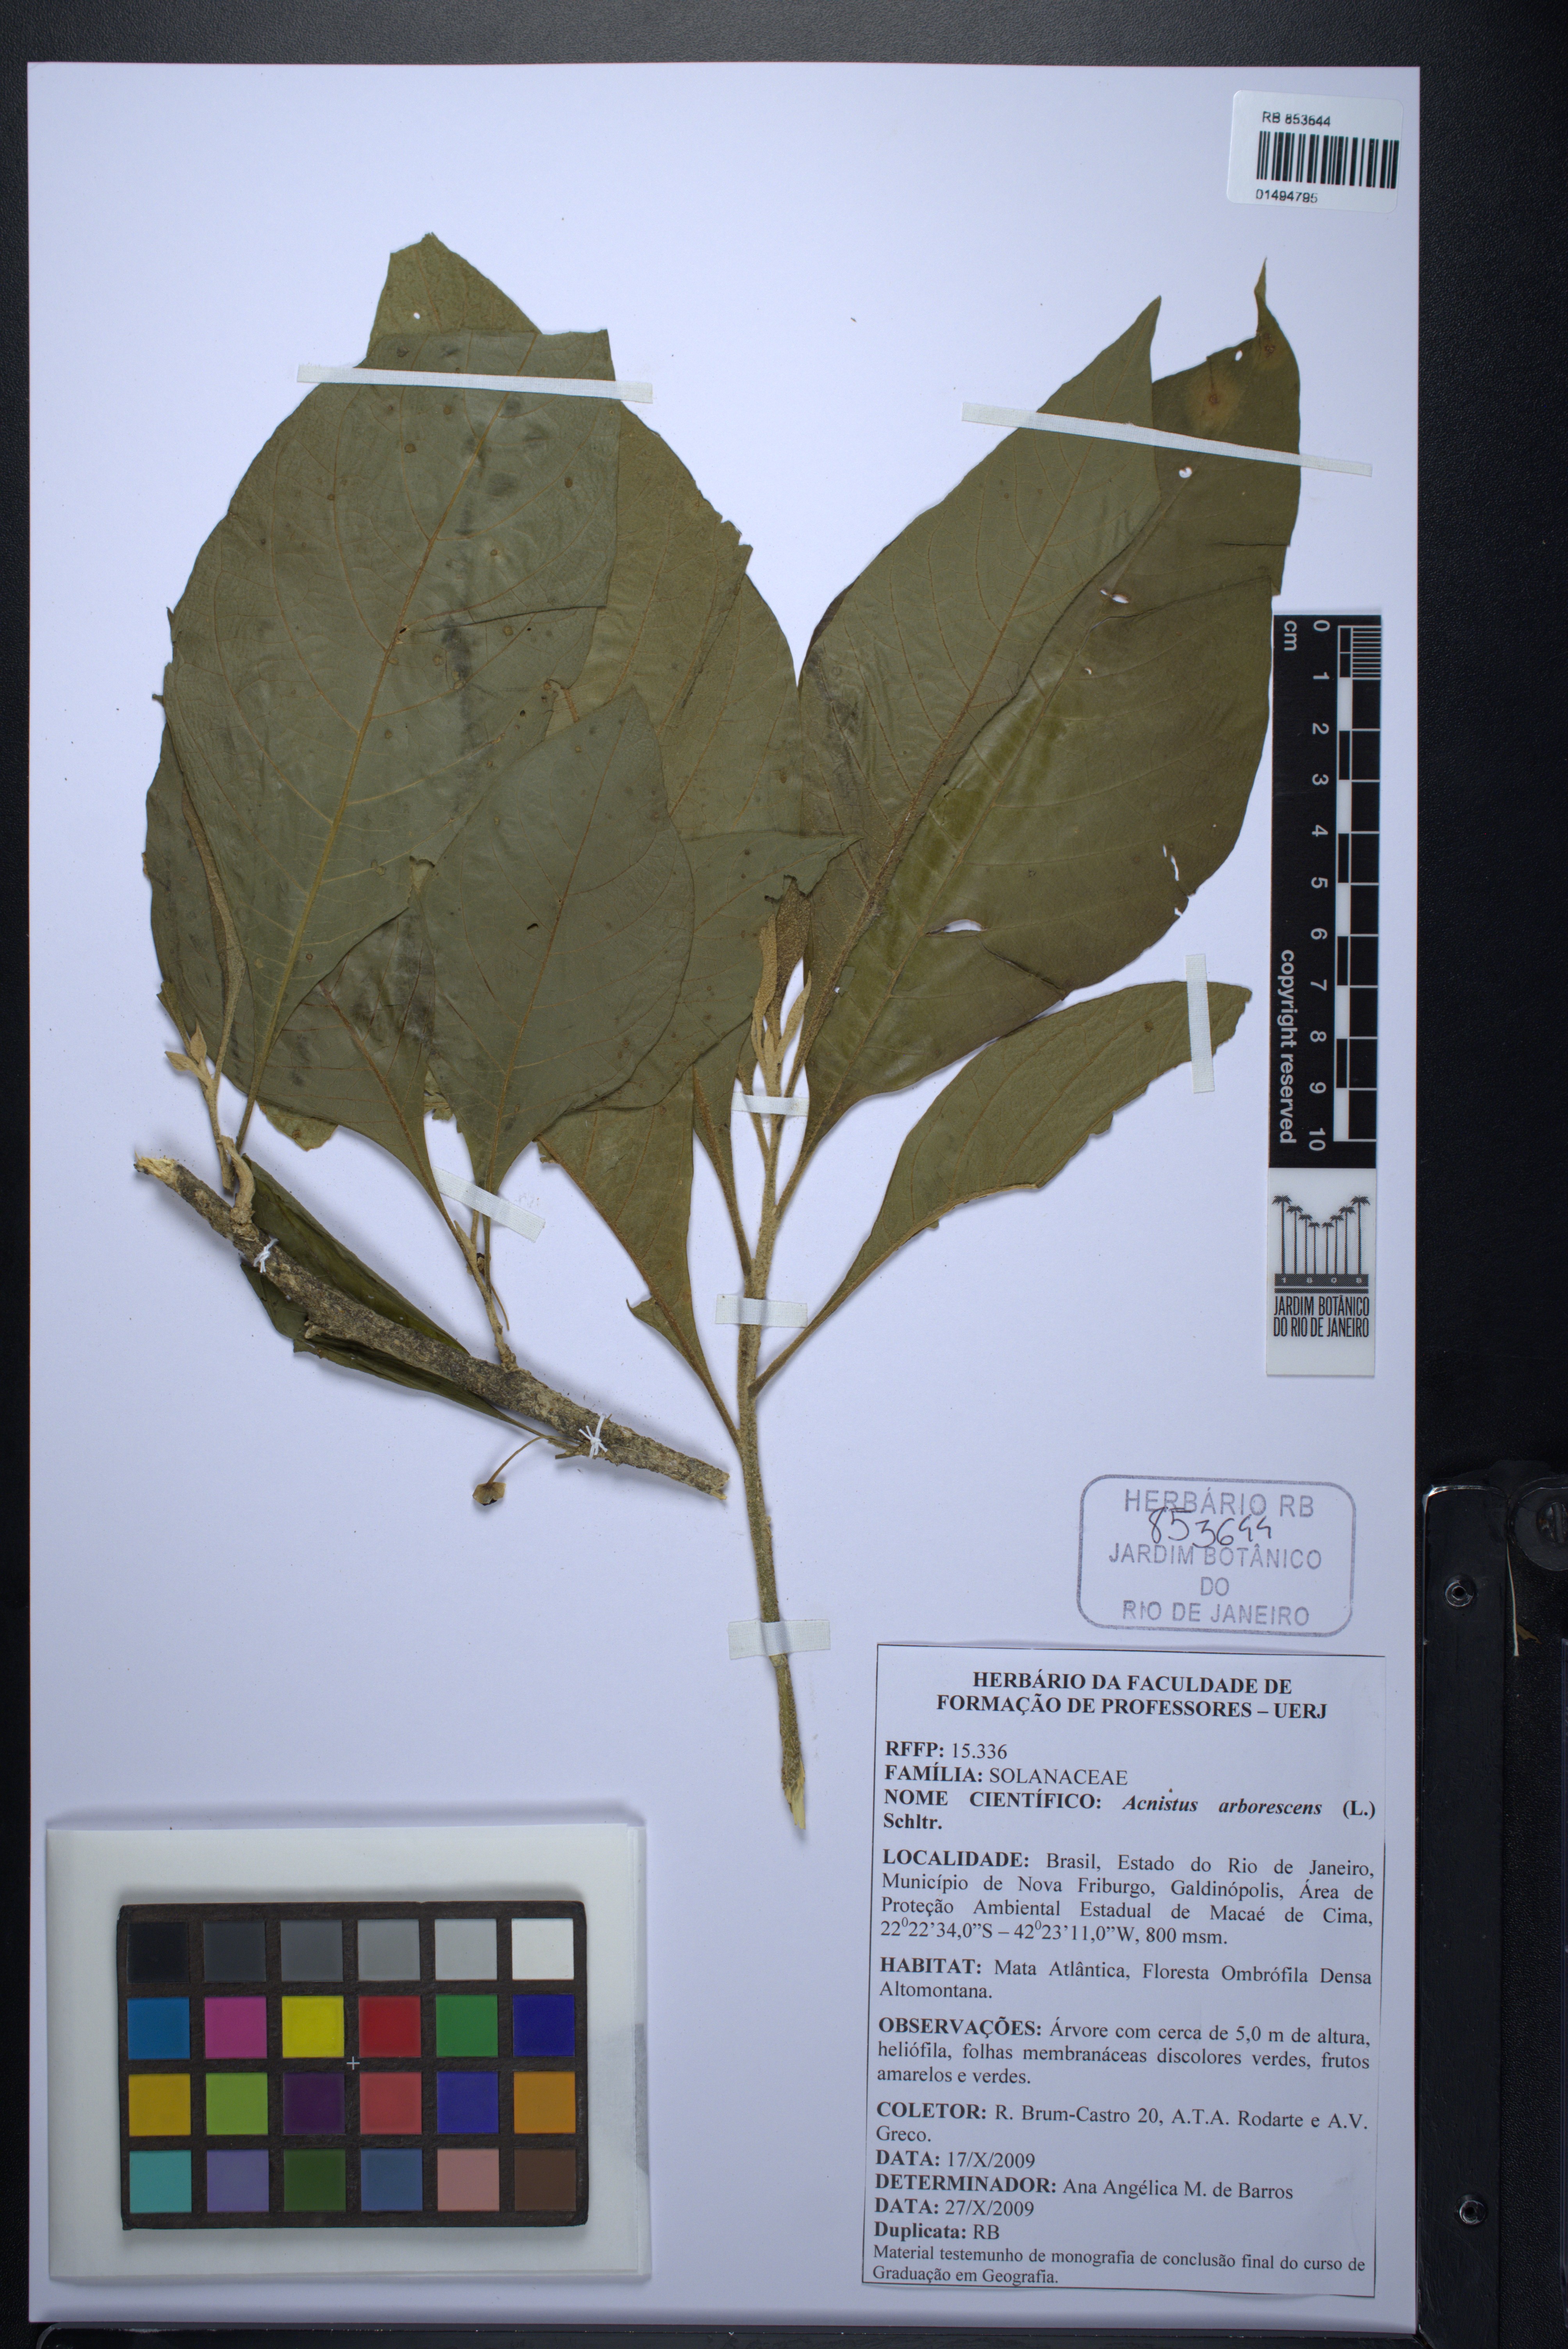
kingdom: Plantae
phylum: Tracheophyta
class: Magnoliopsida
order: Solanales
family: Solanaceae
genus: Iochroma
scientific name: Iochroma arborescens
